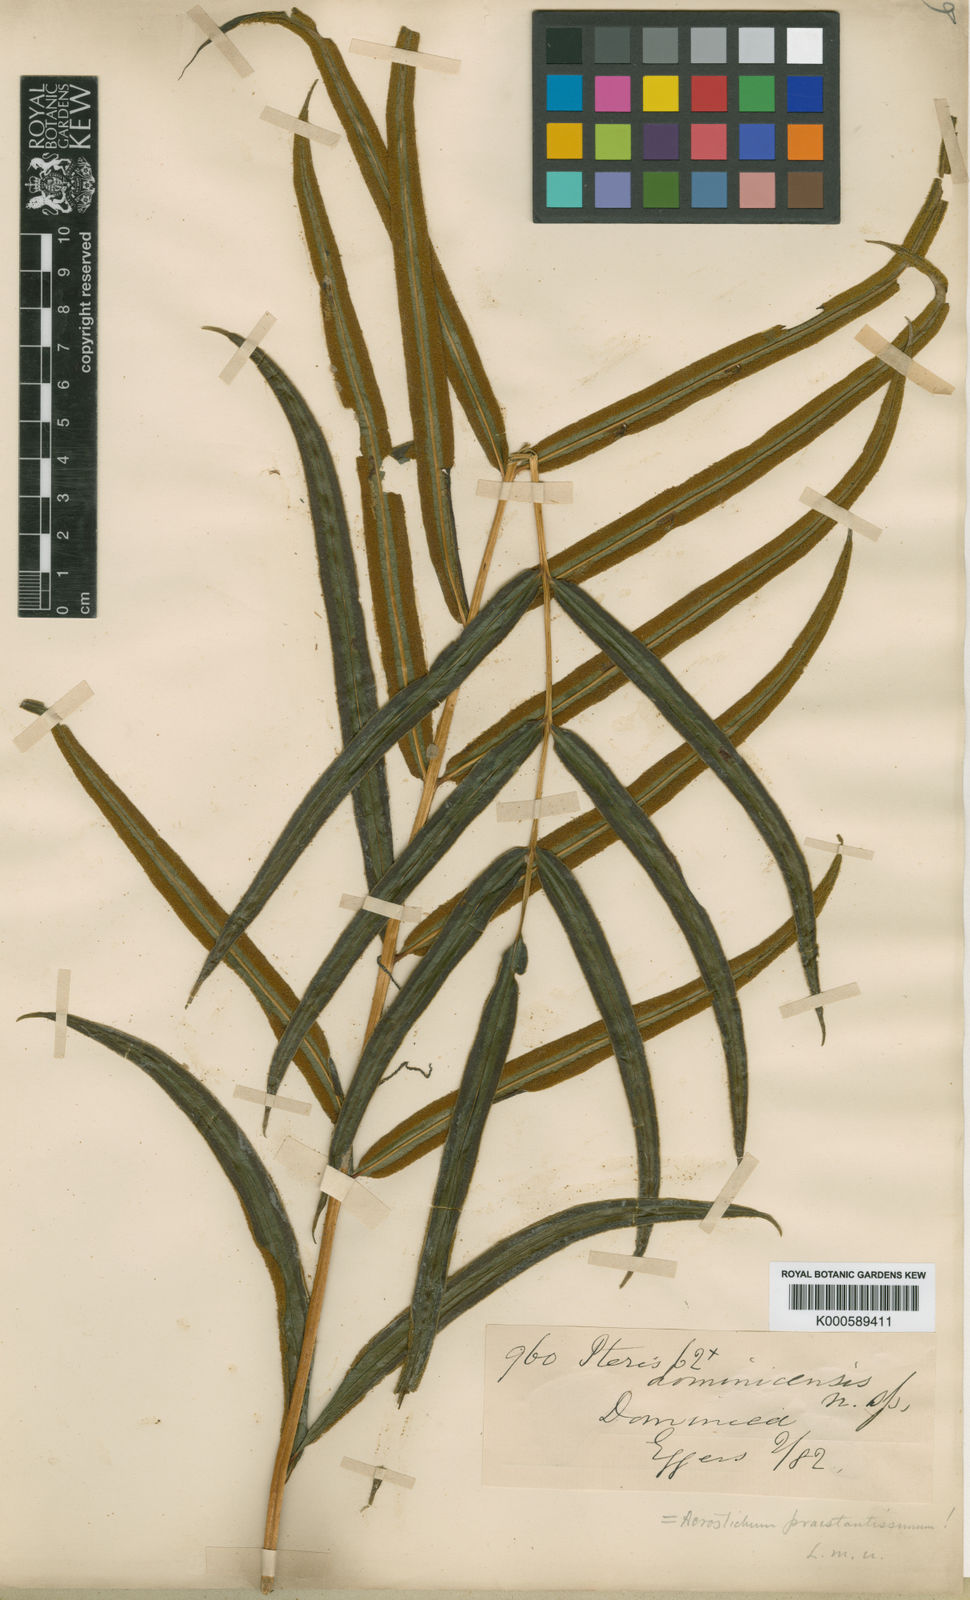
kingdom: Plantae
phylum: Tracheophyta
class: Polypodiopsida
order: Polypodiales
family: Pteridaceae
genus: Pteris
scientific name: Pteris
